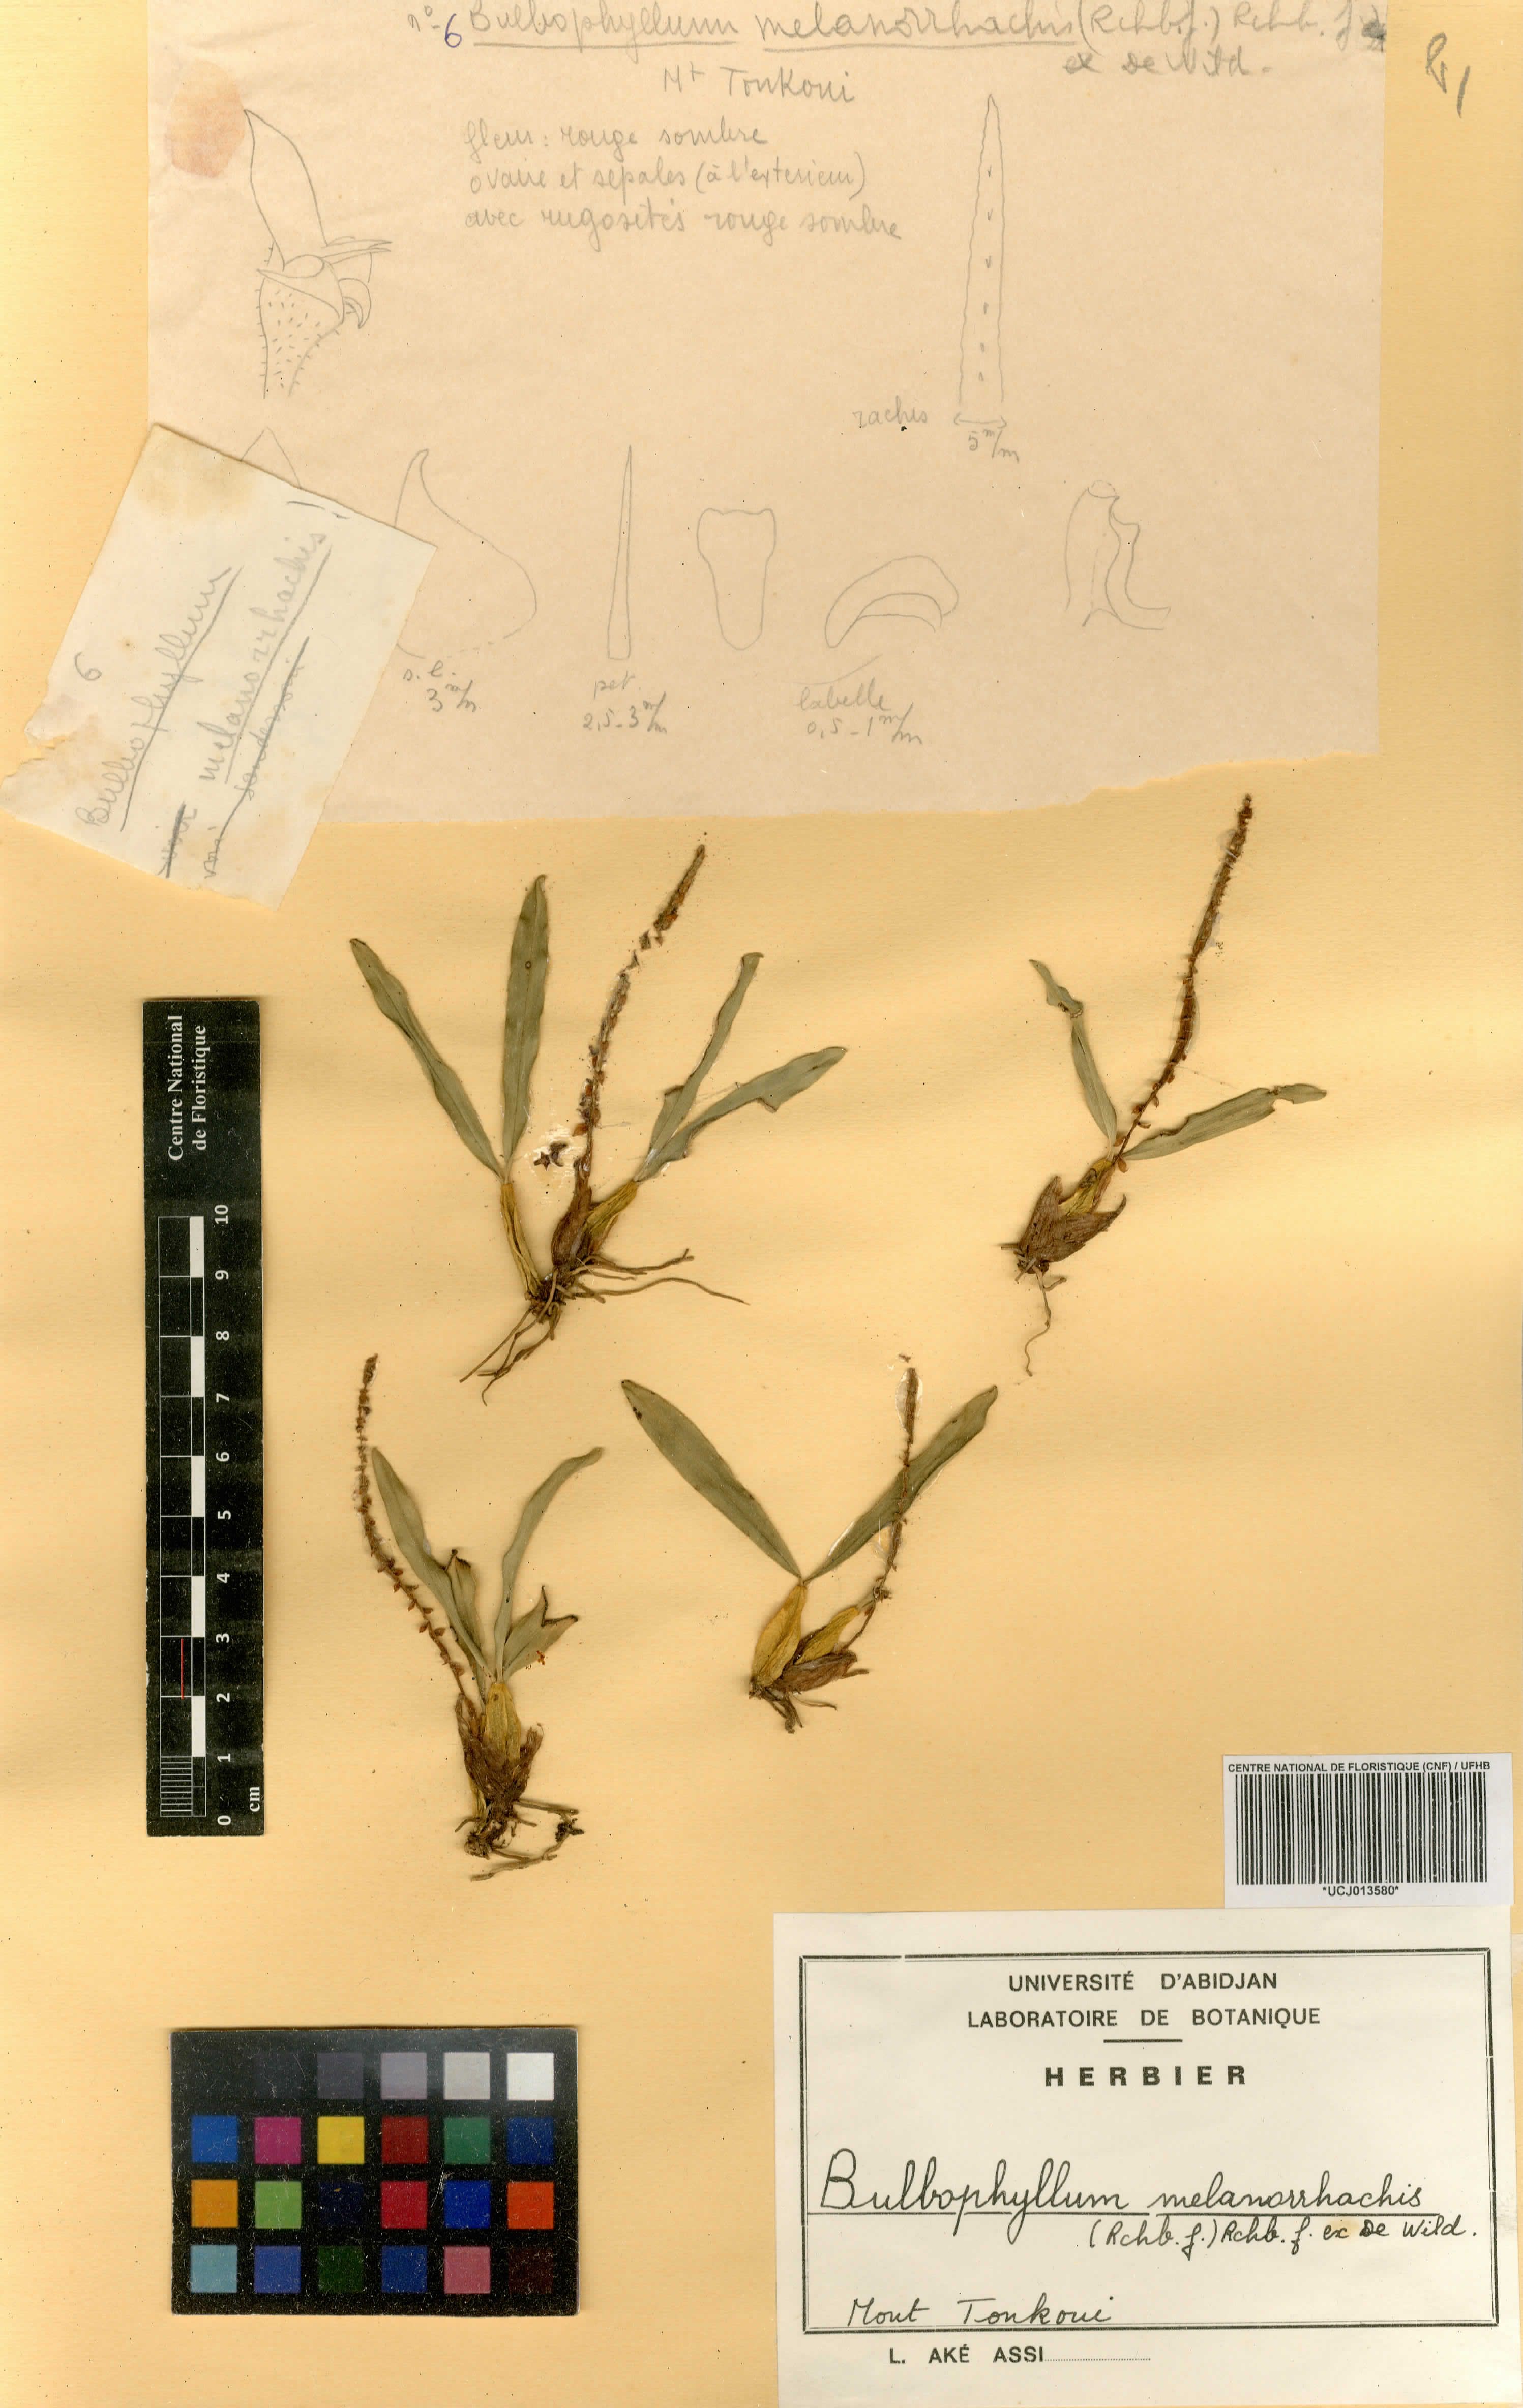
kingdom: Plantae
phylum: Tracheophyta
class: Liliopsida
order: Asparagales
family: Orchidaceae
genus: Bulbophyllum
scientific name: Bulbophyllum falcatum
